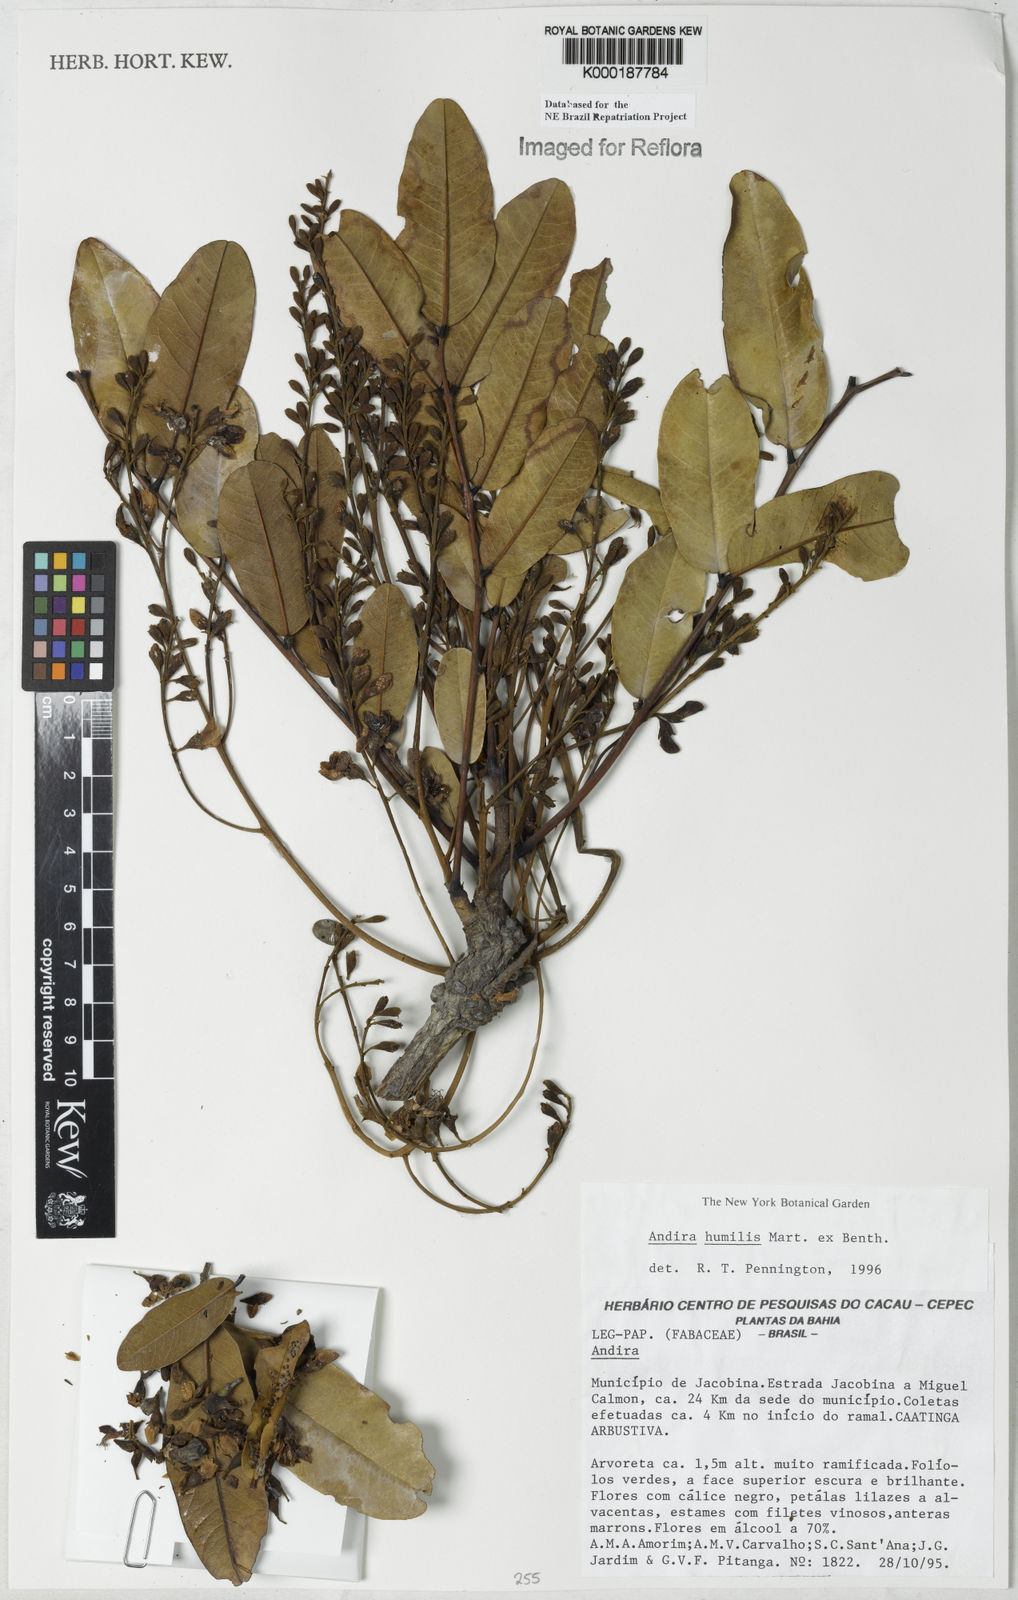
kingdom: Plantae
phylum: Tracheophyta
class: Magnoliopsida
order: Fabales
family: Fabaceae
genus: Andira
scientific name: Andira humilis
